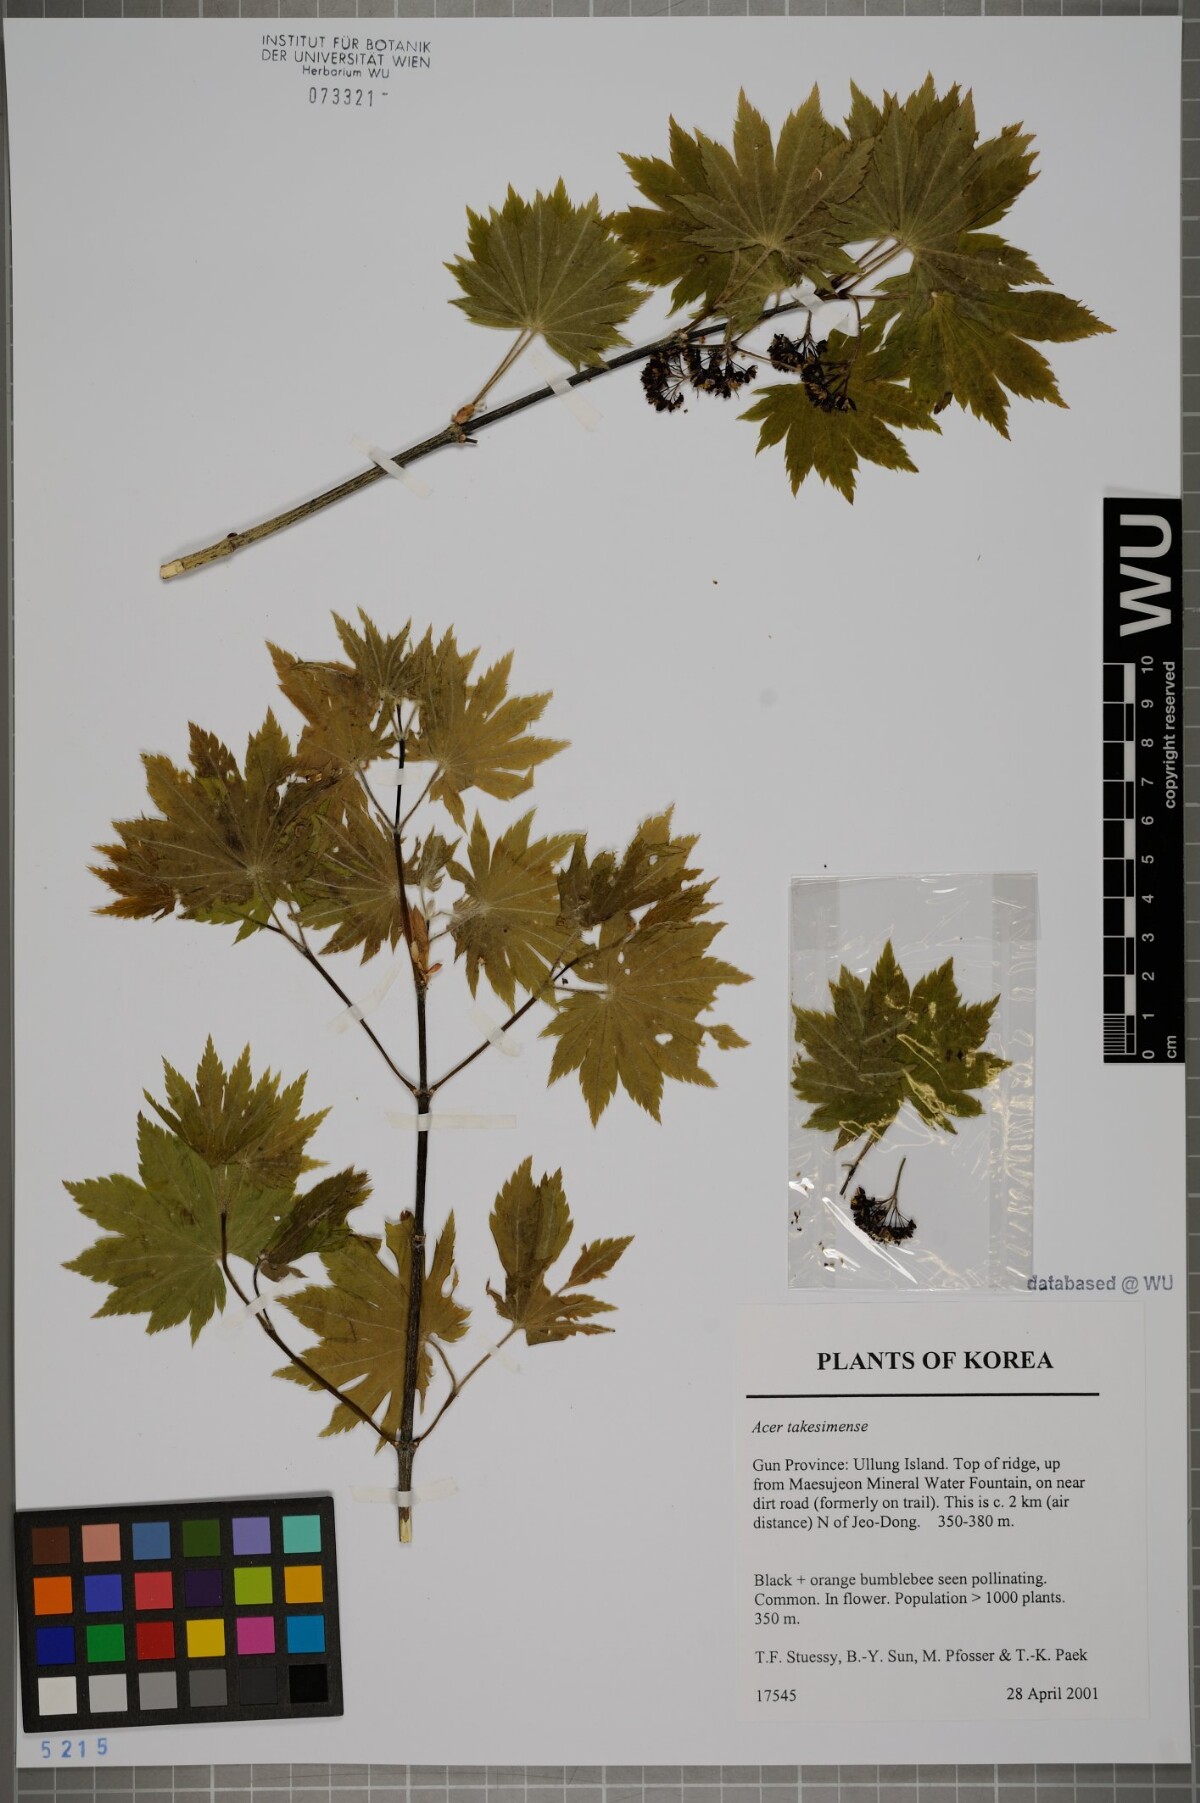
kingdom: Plantae
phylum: Tracheophyta
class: Magnoliopsida
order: Sapindales
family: Sapindaceae
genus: Acer
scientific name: Acer pseudosieboldianum
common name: Korean maple
